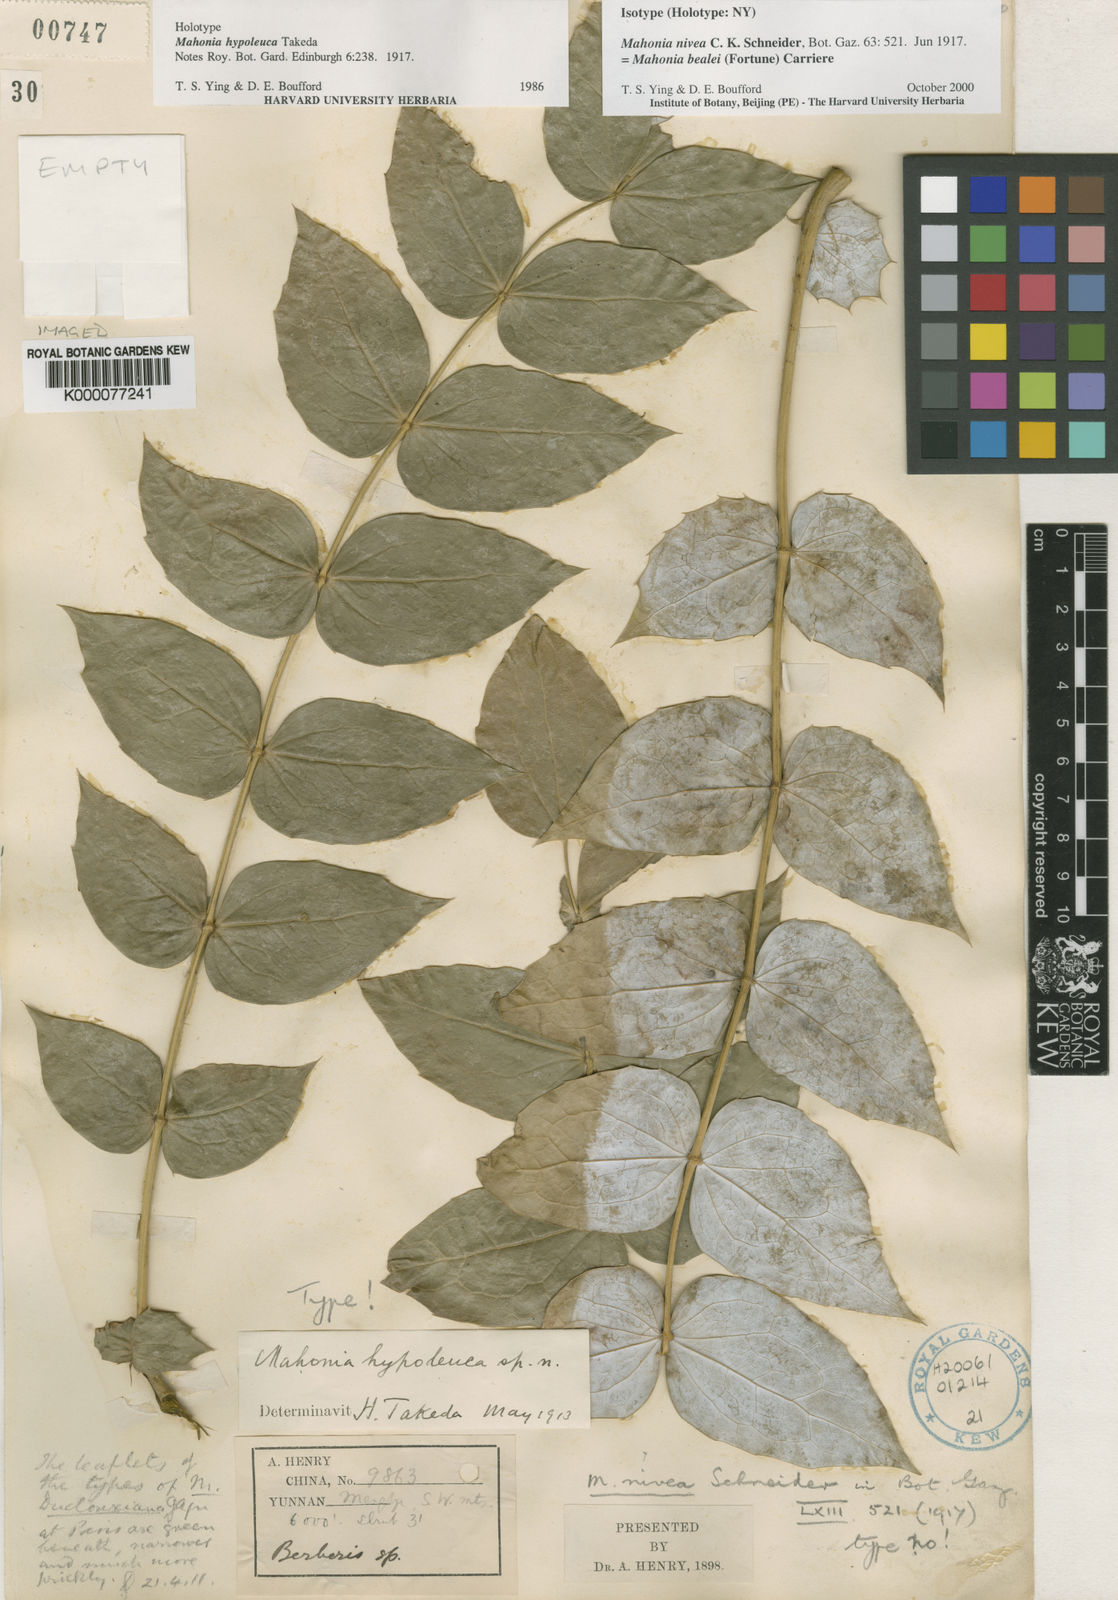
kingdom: Plantae
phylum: Tracheophyta
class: Magnoliopsida
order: Ranunculales
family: Berberidaceae
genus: Mahonia
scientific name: Mahonia nivea
